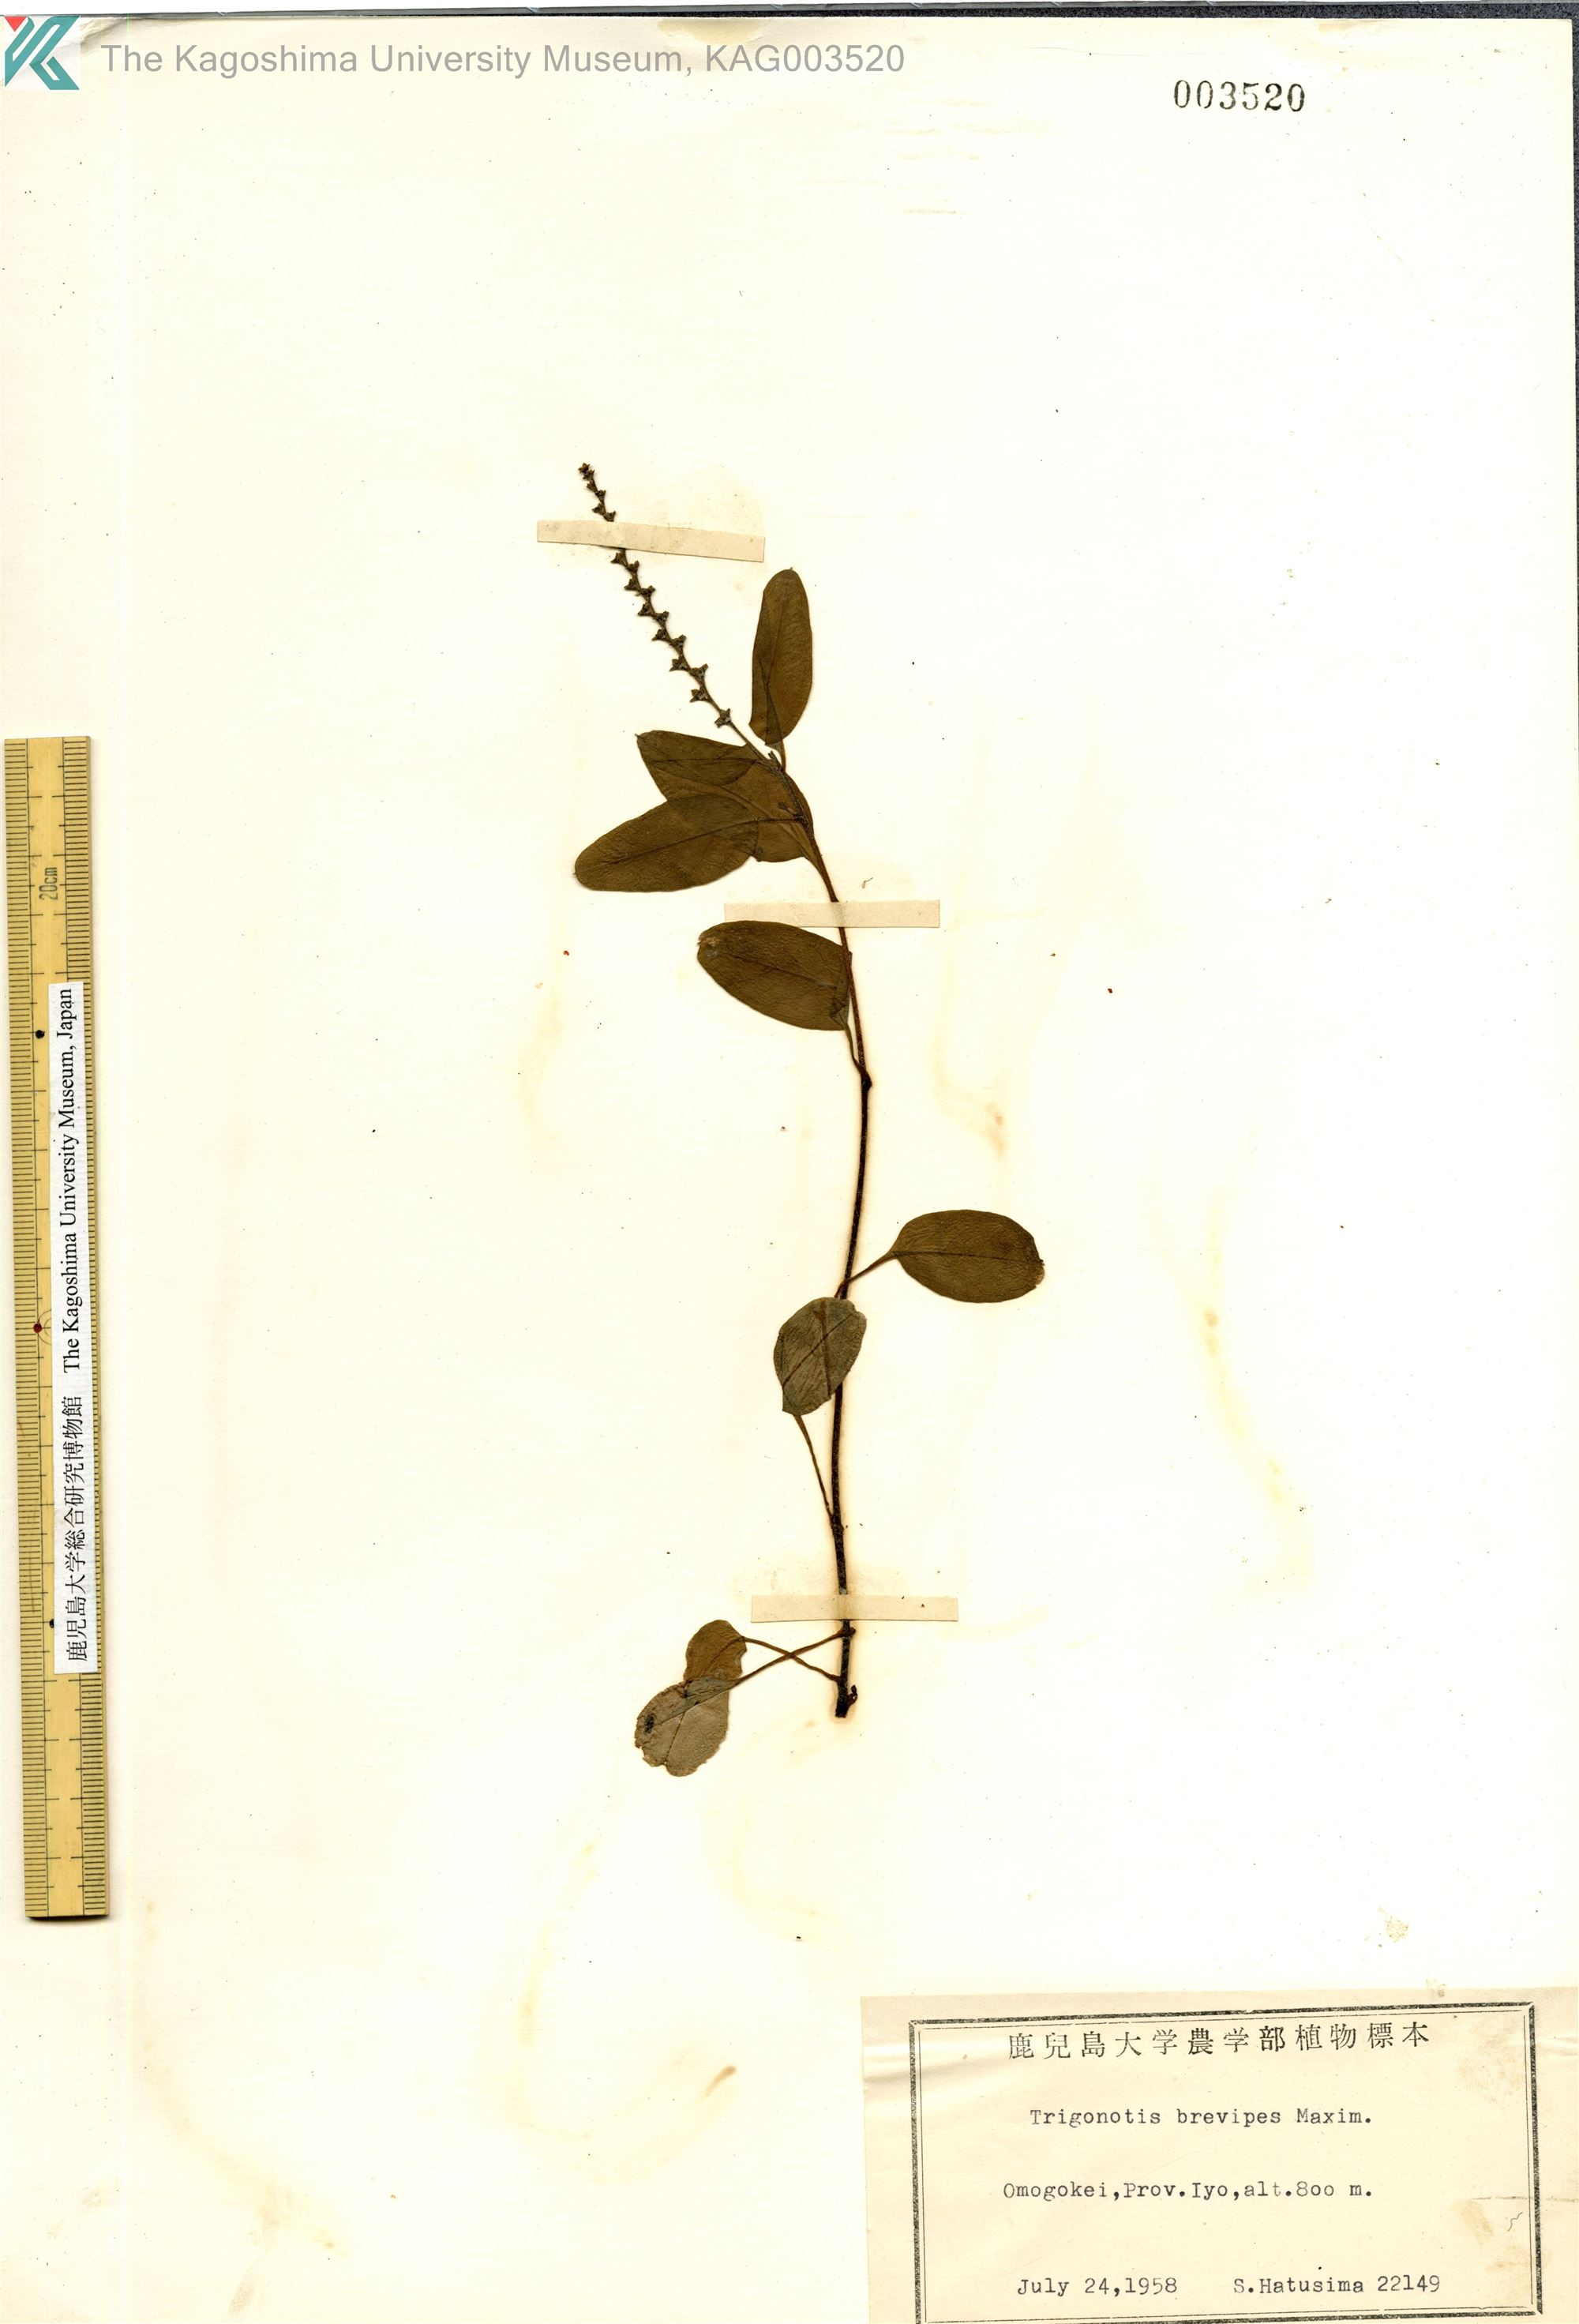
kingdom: Plantae
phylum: Tracheophyta
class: Magnoliopsida
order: Boraginales
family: Boraginaceae
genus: Trigonotis
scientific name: Trigonotis brevipes
